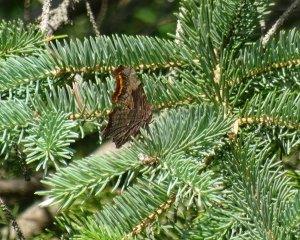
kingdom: Animalia
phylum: Arthropoda
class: Insecta
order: Lepidoptera
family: Nymphalidae
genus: Polygonia
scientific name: Polygonia progne
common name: Gray Comma
